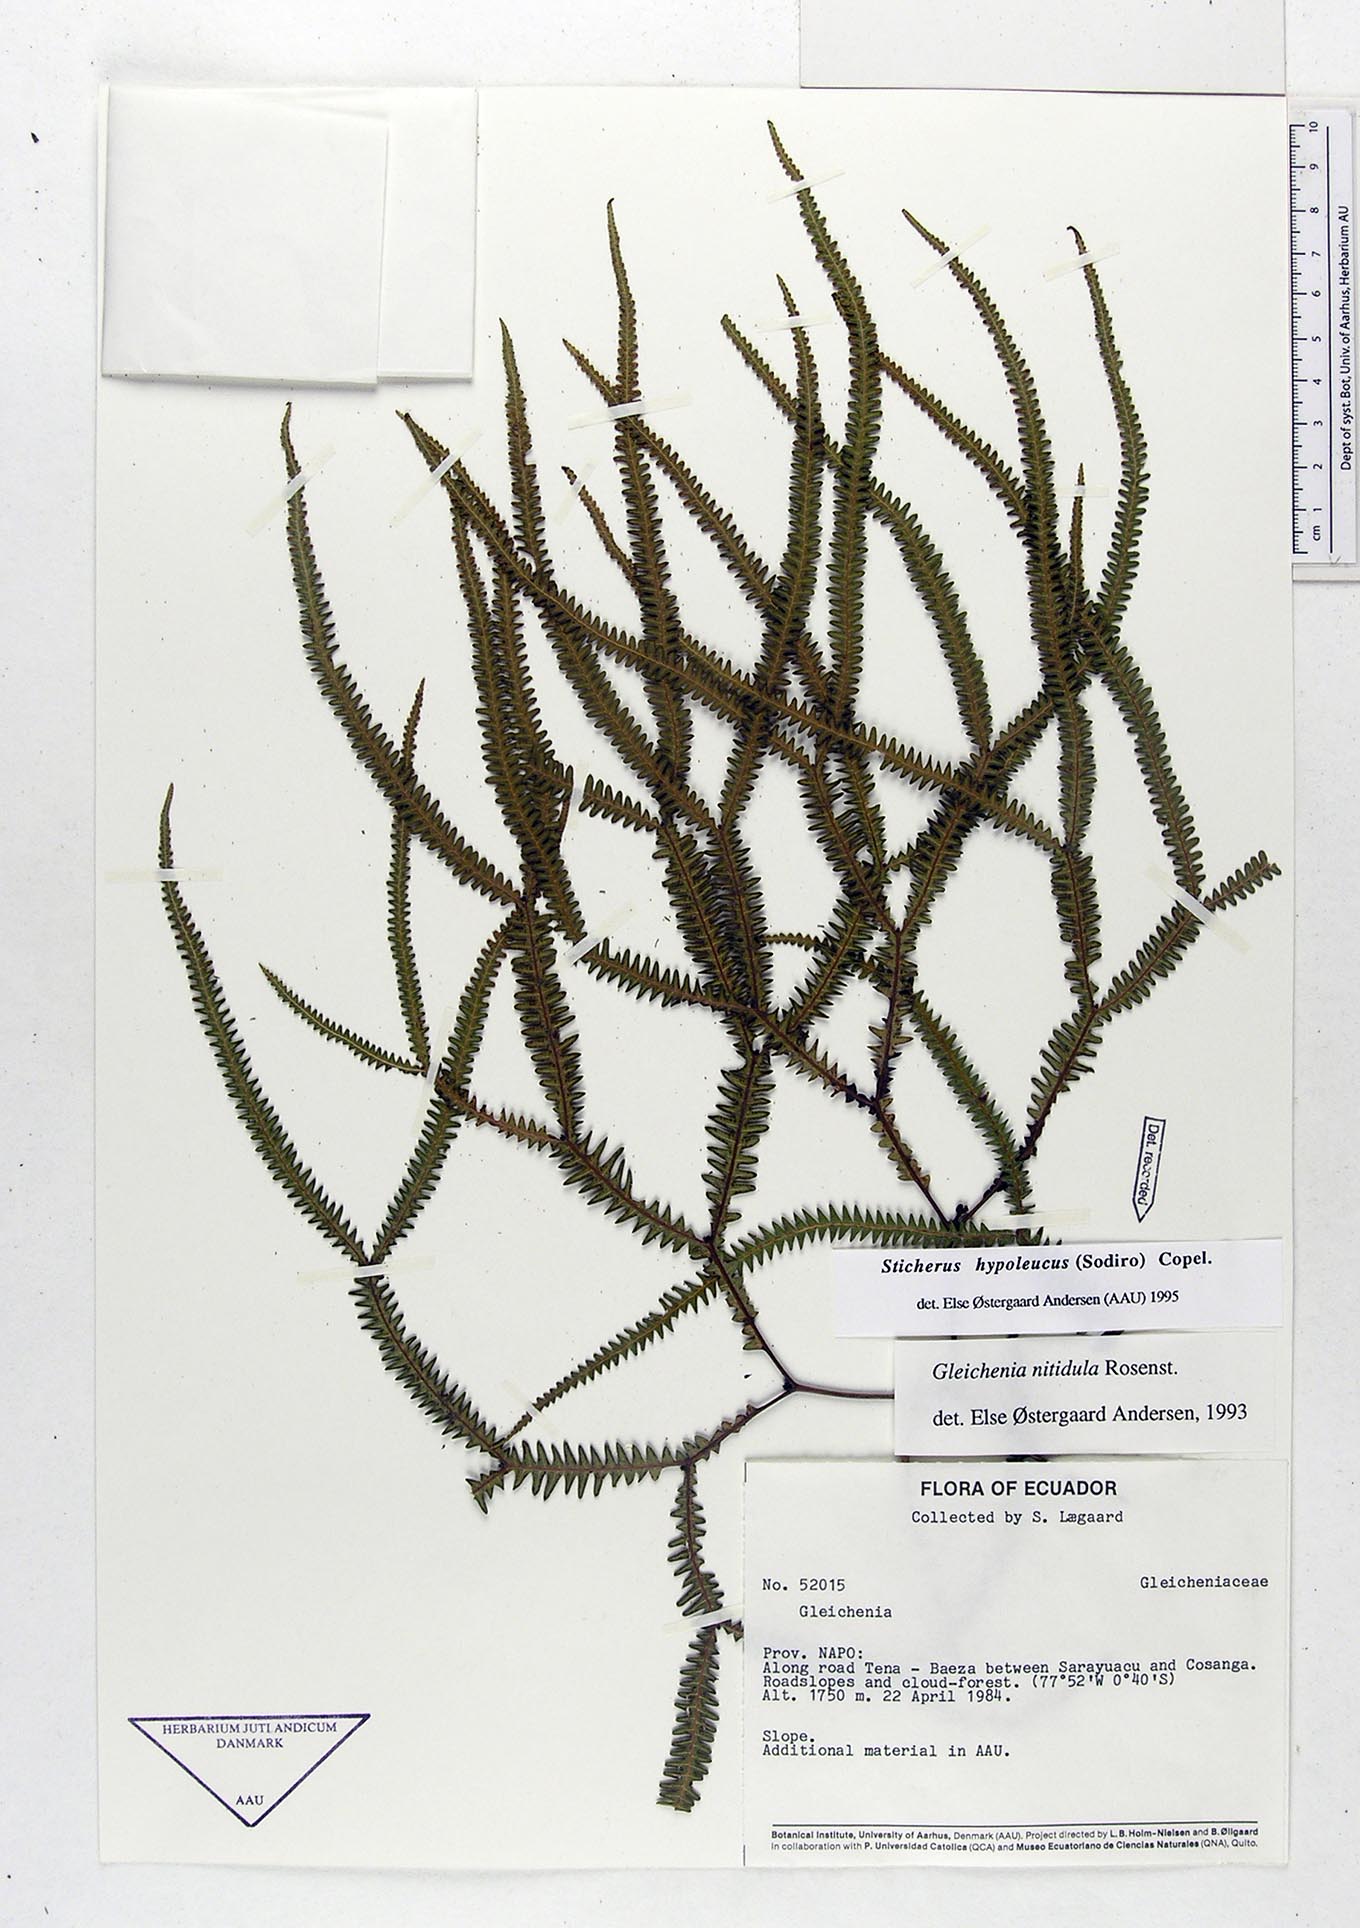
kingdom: Plantae
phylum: Tracheophyta
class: Polypodiopsida
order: Gleicheniales
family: Gleicheniaceae
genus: Sticherus
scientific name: Sticherus hypoleucus
